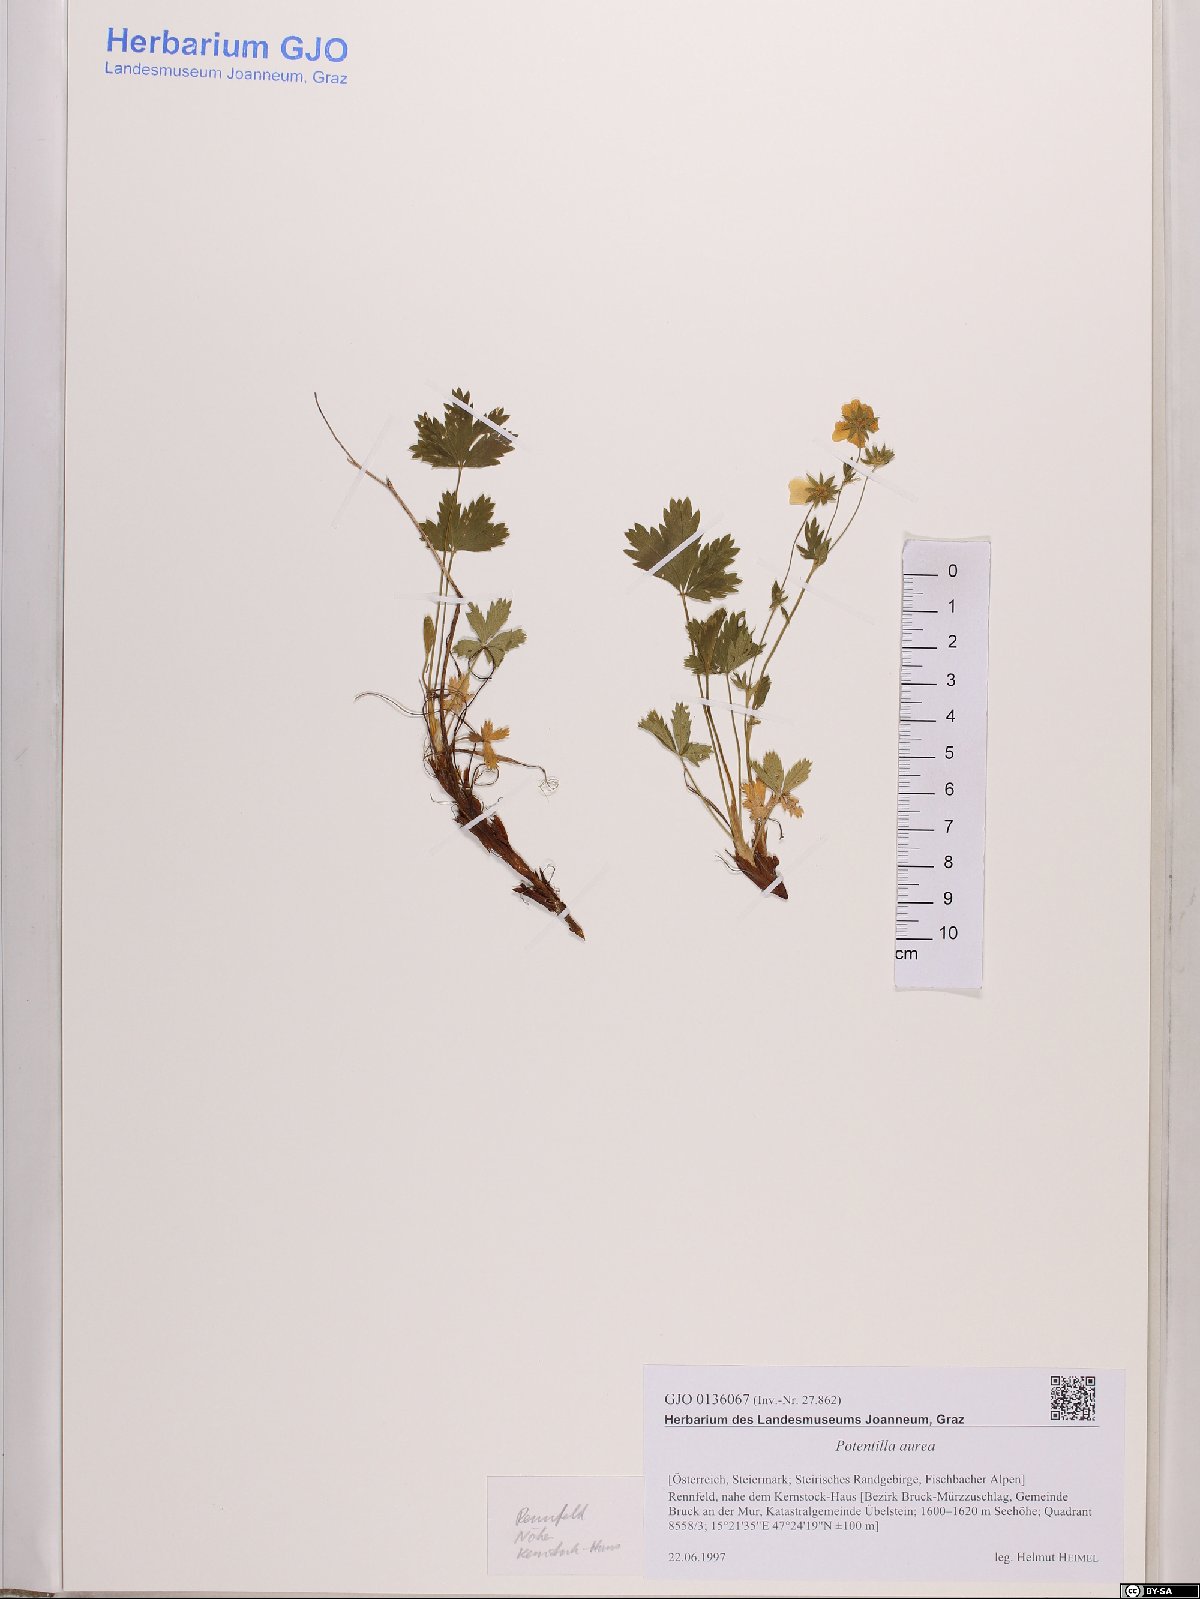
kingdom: Plantae
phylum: Tracheophyta
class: Magnoliopsida
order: Rosales
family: Rosaceae
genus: Potentilla
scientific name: Potentilla aurea
